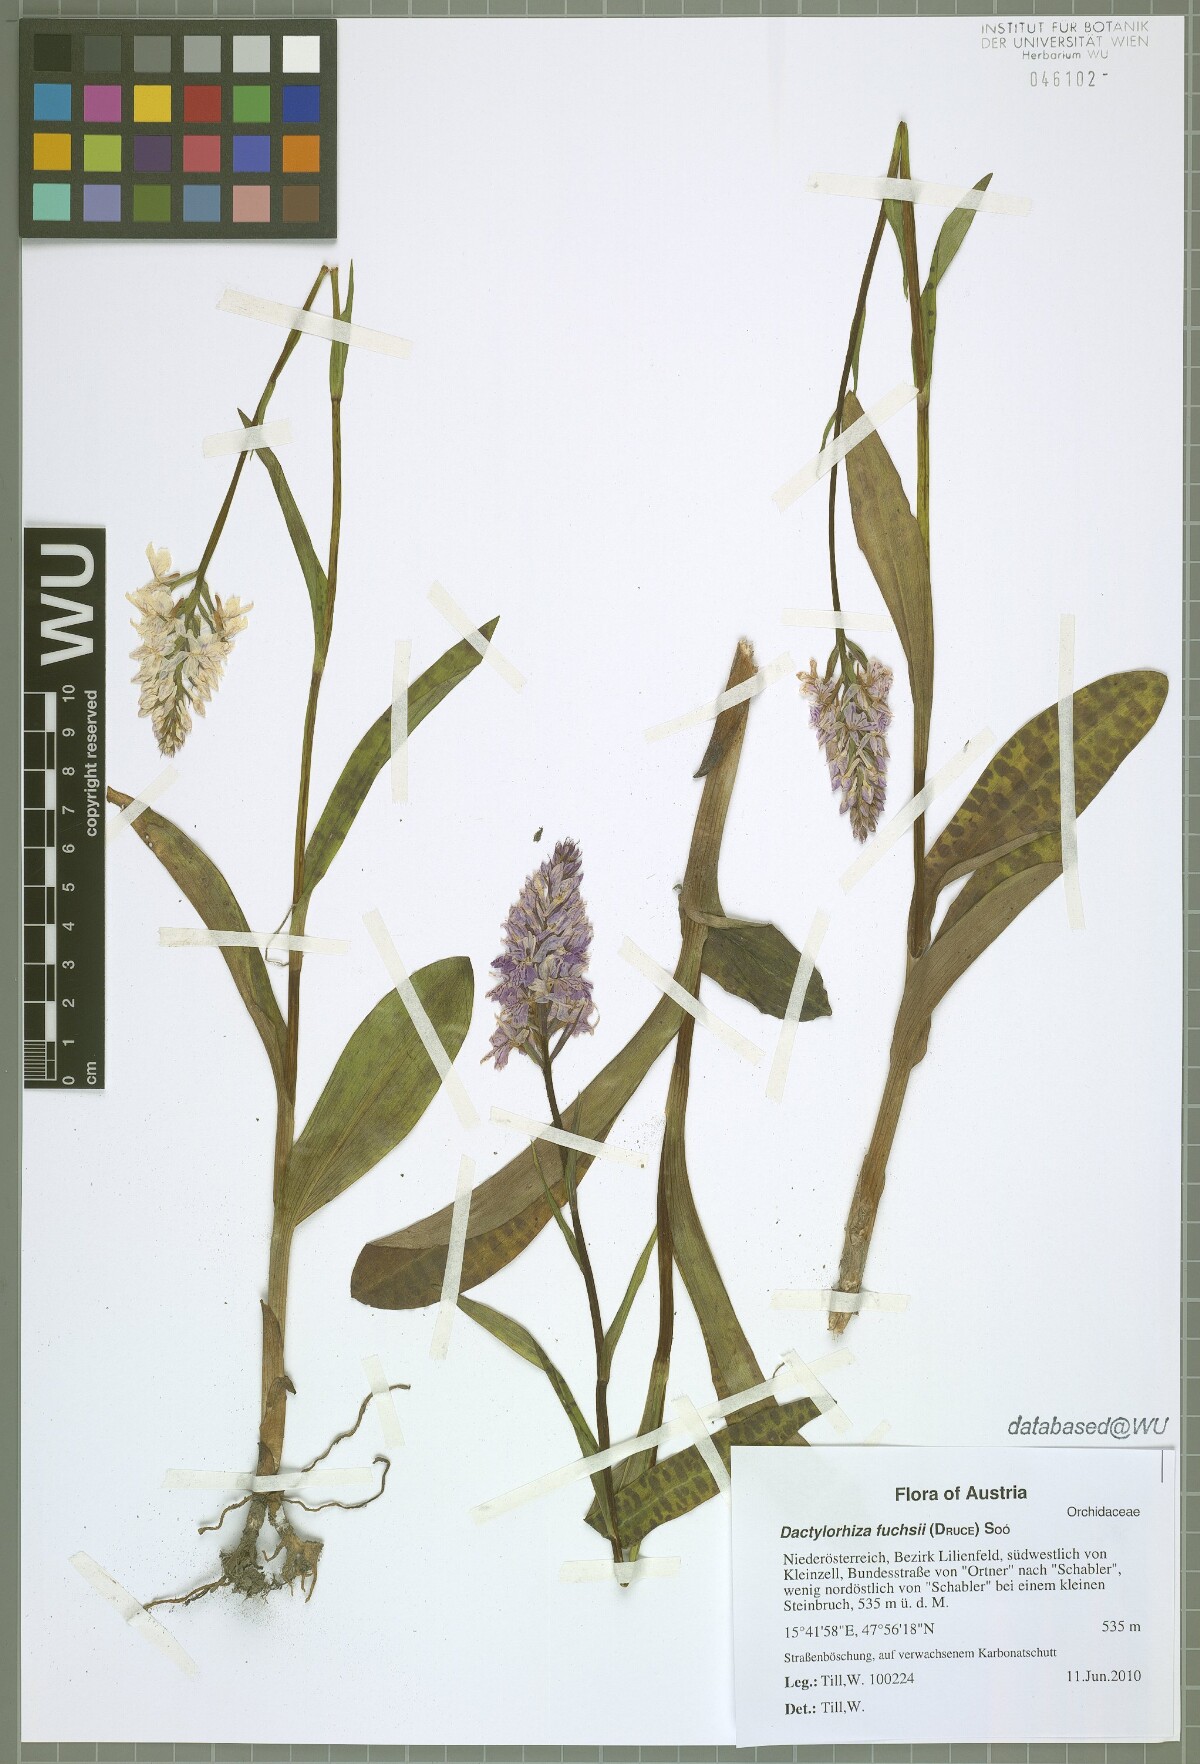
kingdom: Plantae
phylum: Tracheophyta
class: Liliopsida
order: Asparagales
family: Orchidaceae
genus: Dactylorhiza
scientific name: Dactylorhiza maculata
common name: Heath spotted-orchid
